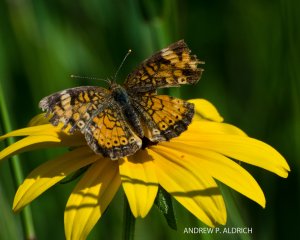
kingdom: Animalia
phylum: Arthropoda
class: Insecta
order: Lepidoptera
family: Nymphalidae
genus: Phyciodes
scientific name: Phyciodes
